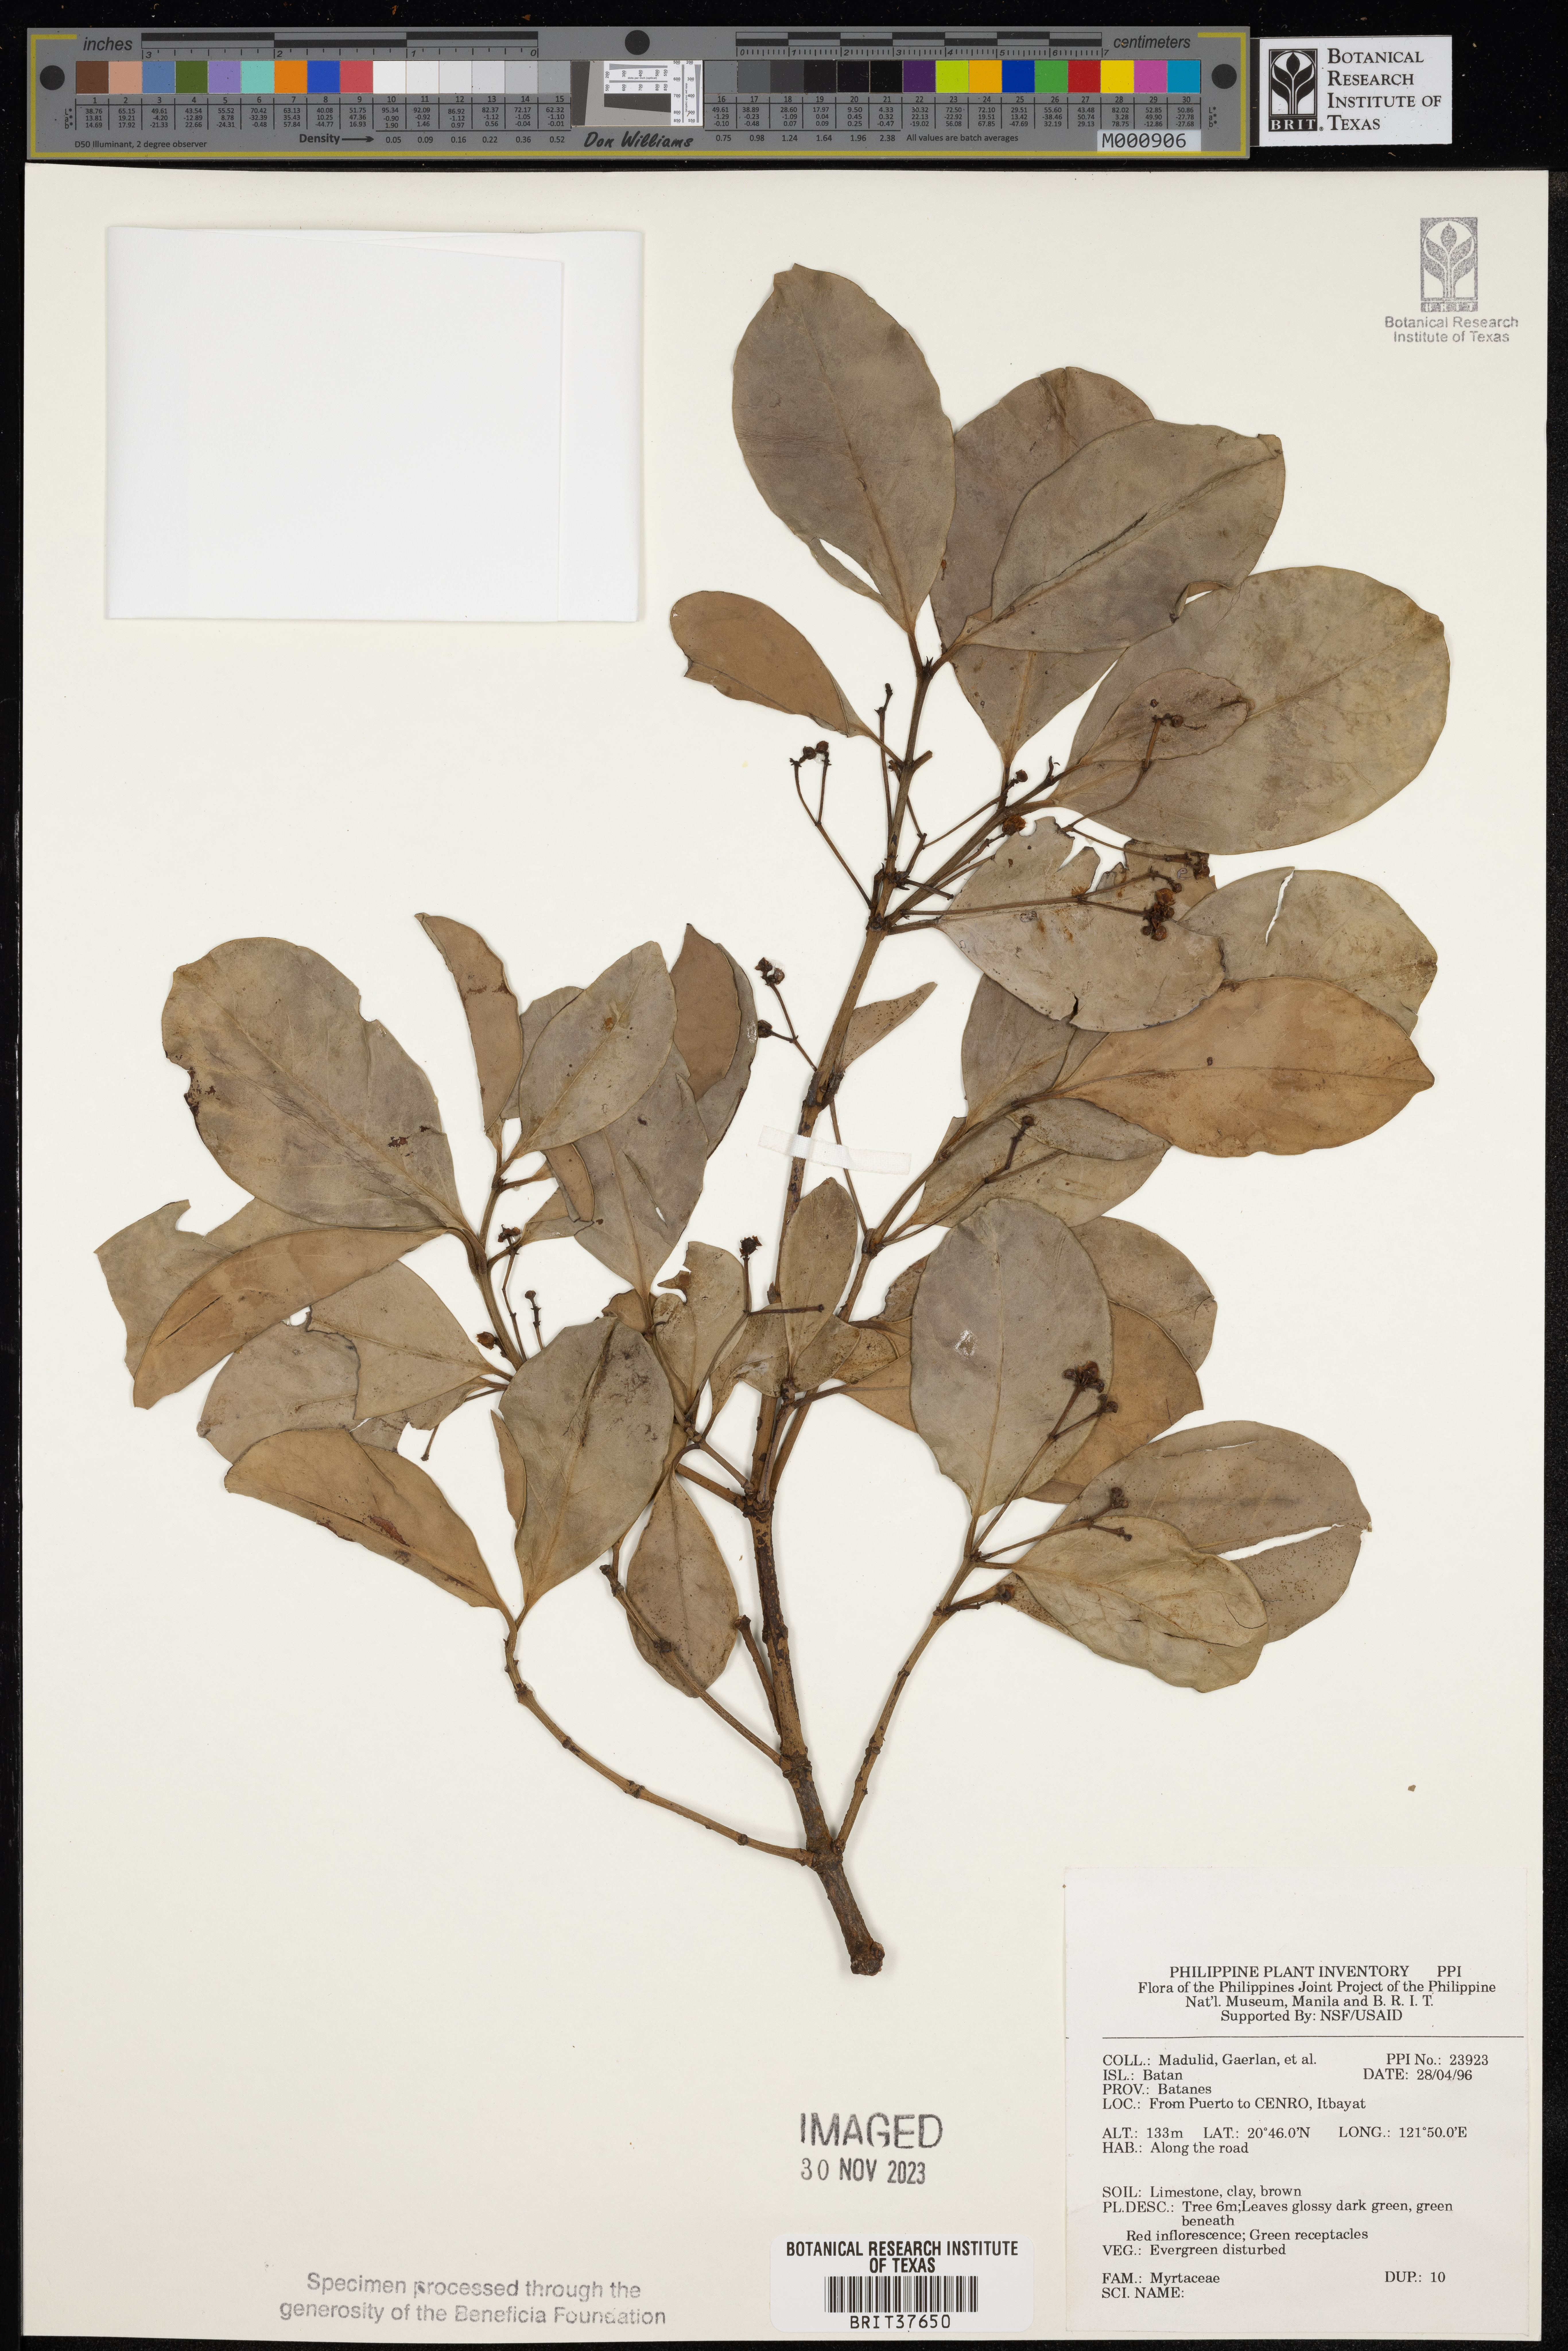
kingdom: Plantae
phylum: Tracheophyta
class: Magnoliopsida
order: Myrtales
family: Myrtaceae
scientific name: Myrtaceae
